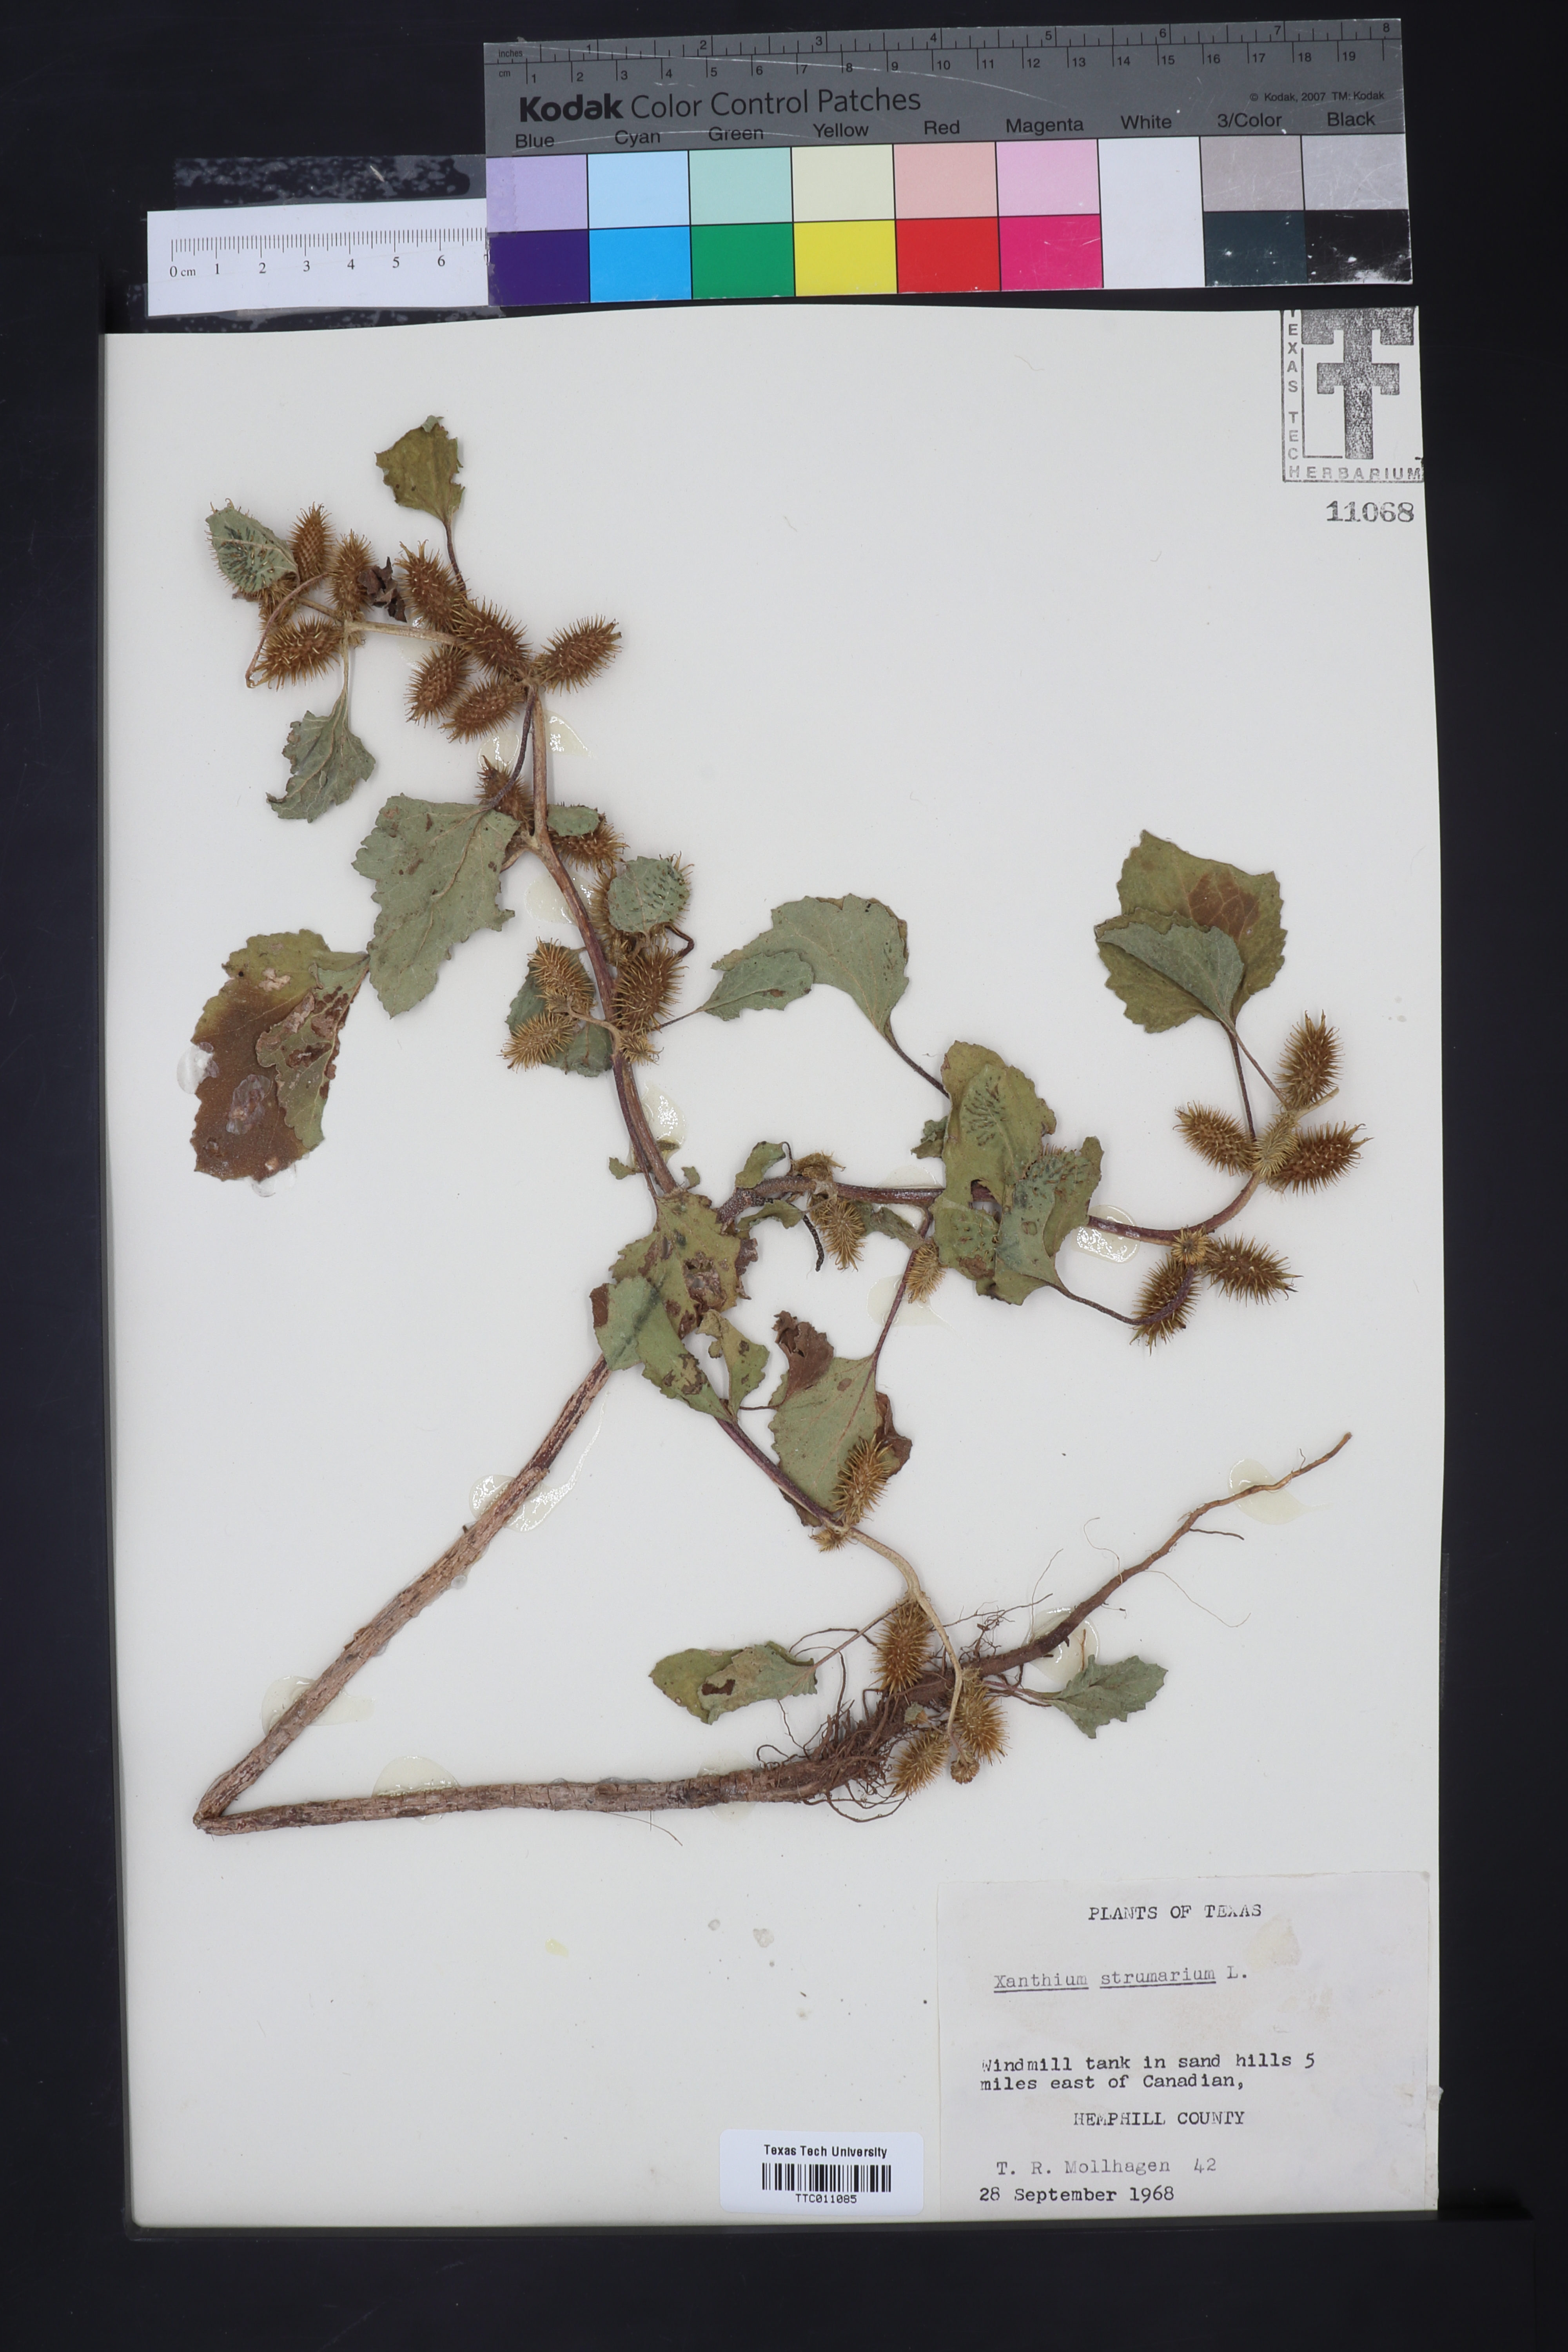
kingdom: Plantae
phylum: Tracheophyta
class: Magnoliopsida
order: Asterales
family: Asteraceae
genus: Xanthium
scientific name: Xanthium strumarium
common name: Rough cocklebur
